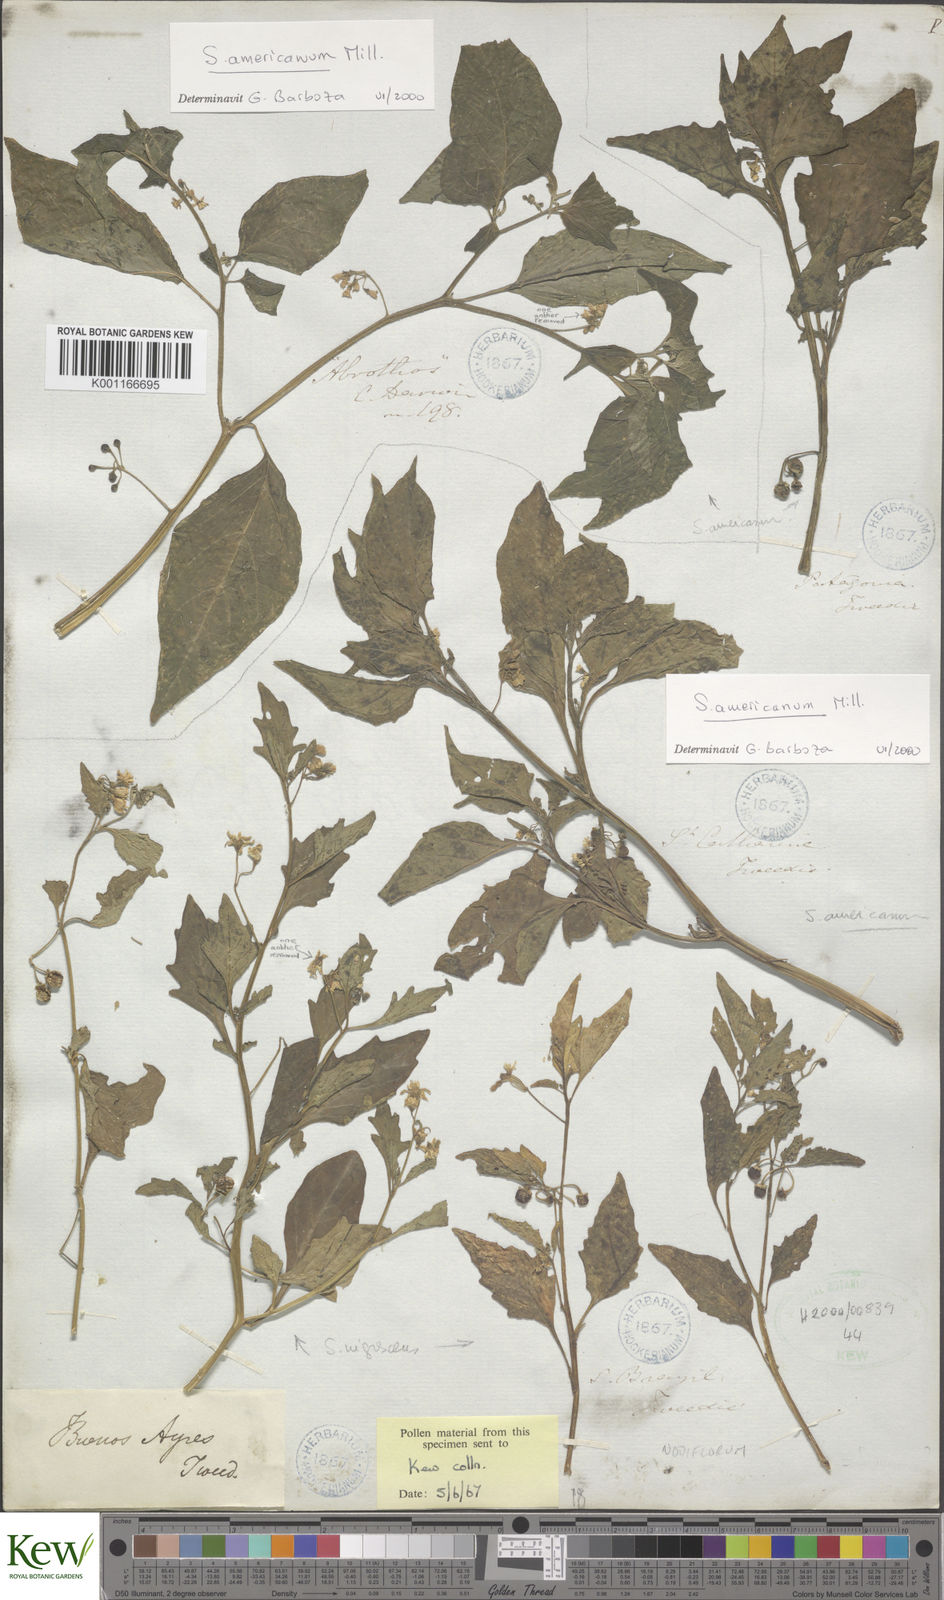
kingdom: Plantae
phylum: Tracheophyta
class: Magnoliopsida
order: Solanales
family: Solanaceae
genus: Solanum
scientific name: Solanum americanum
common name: American black nightshade
